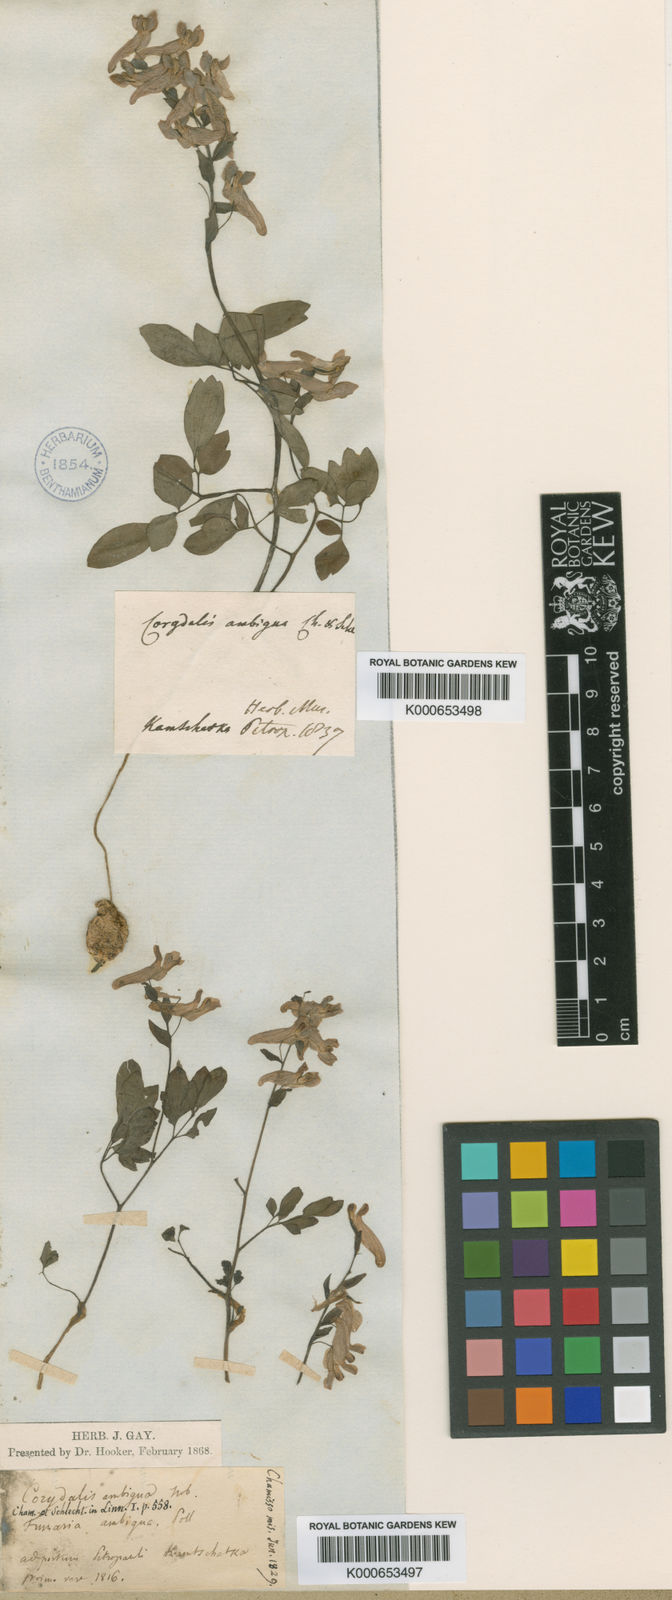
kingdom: Plantae
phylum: Tracheophyta
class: Magnoliopsida
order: Ranunculales
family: Papaveraceae
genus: Corydalis
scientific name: Corydalis ambigua
